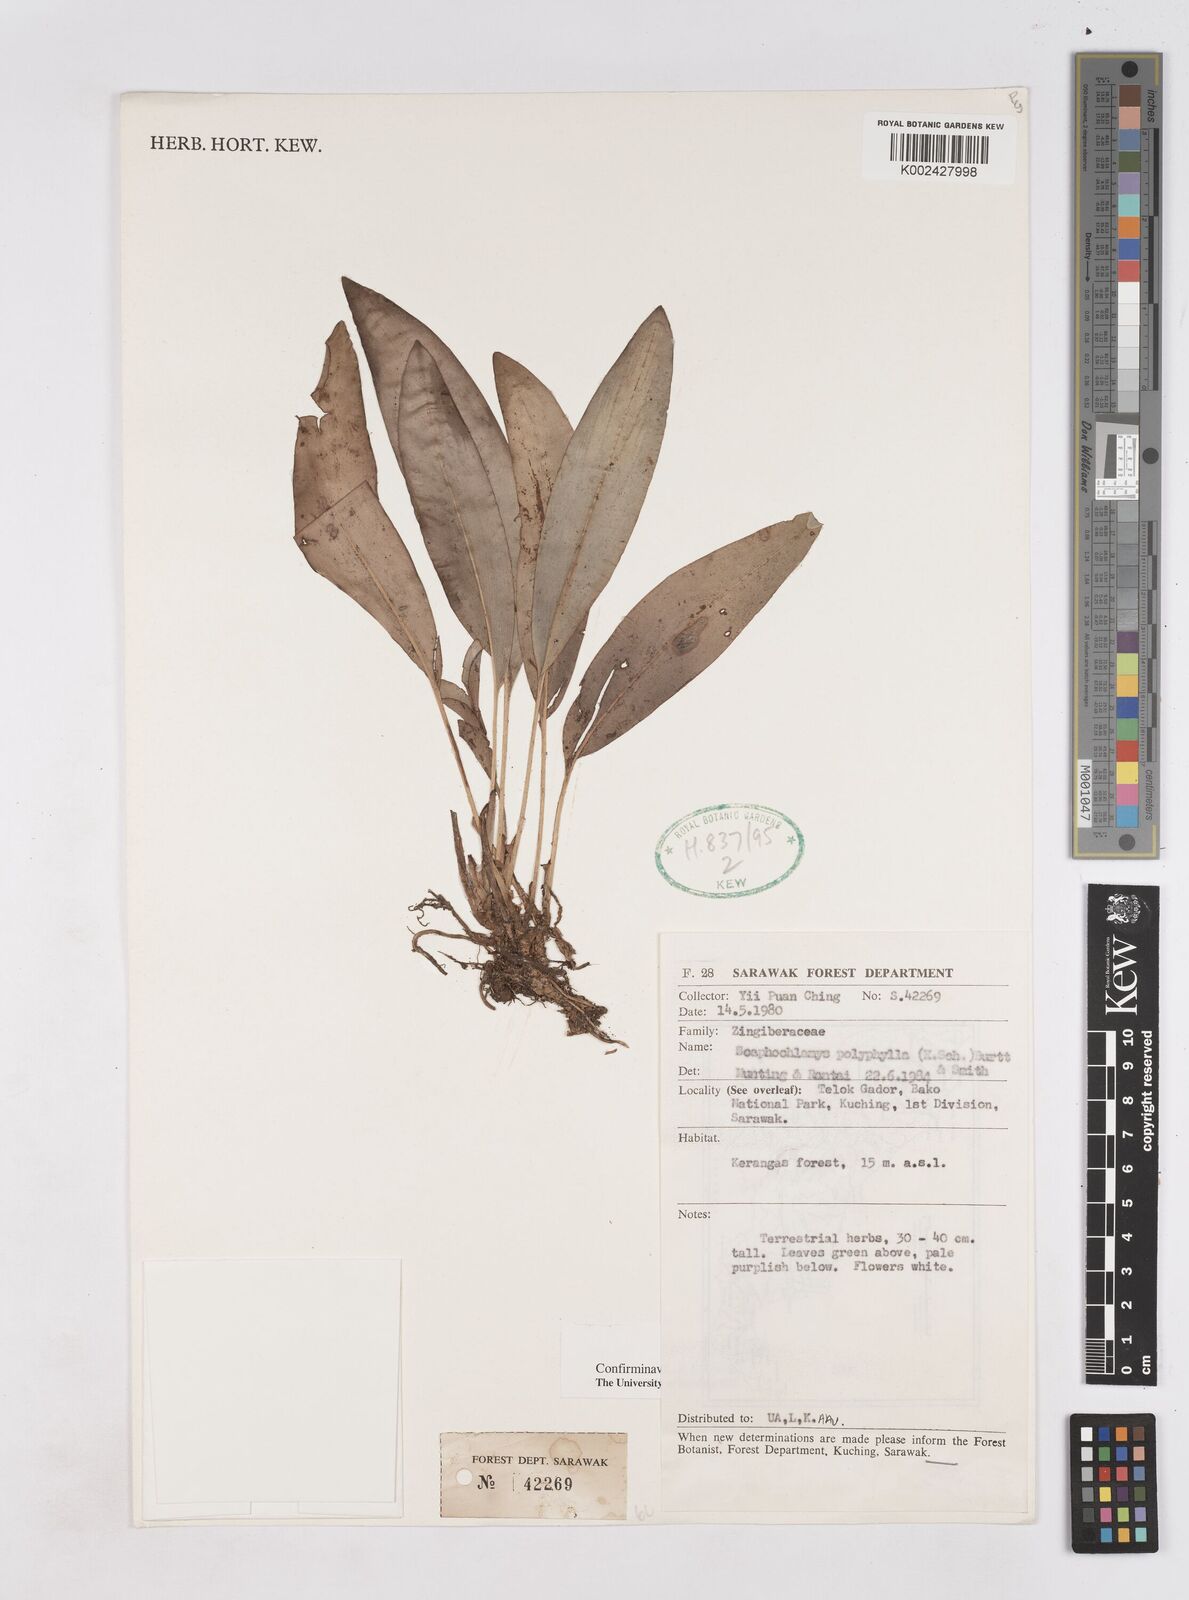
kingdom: Plantae
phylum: Tracheophyta
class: Liliopsida
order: Zingiberales
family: Zingiberaceae
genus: Scaphochlamys
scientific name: Scaphochlamys polyphylla
